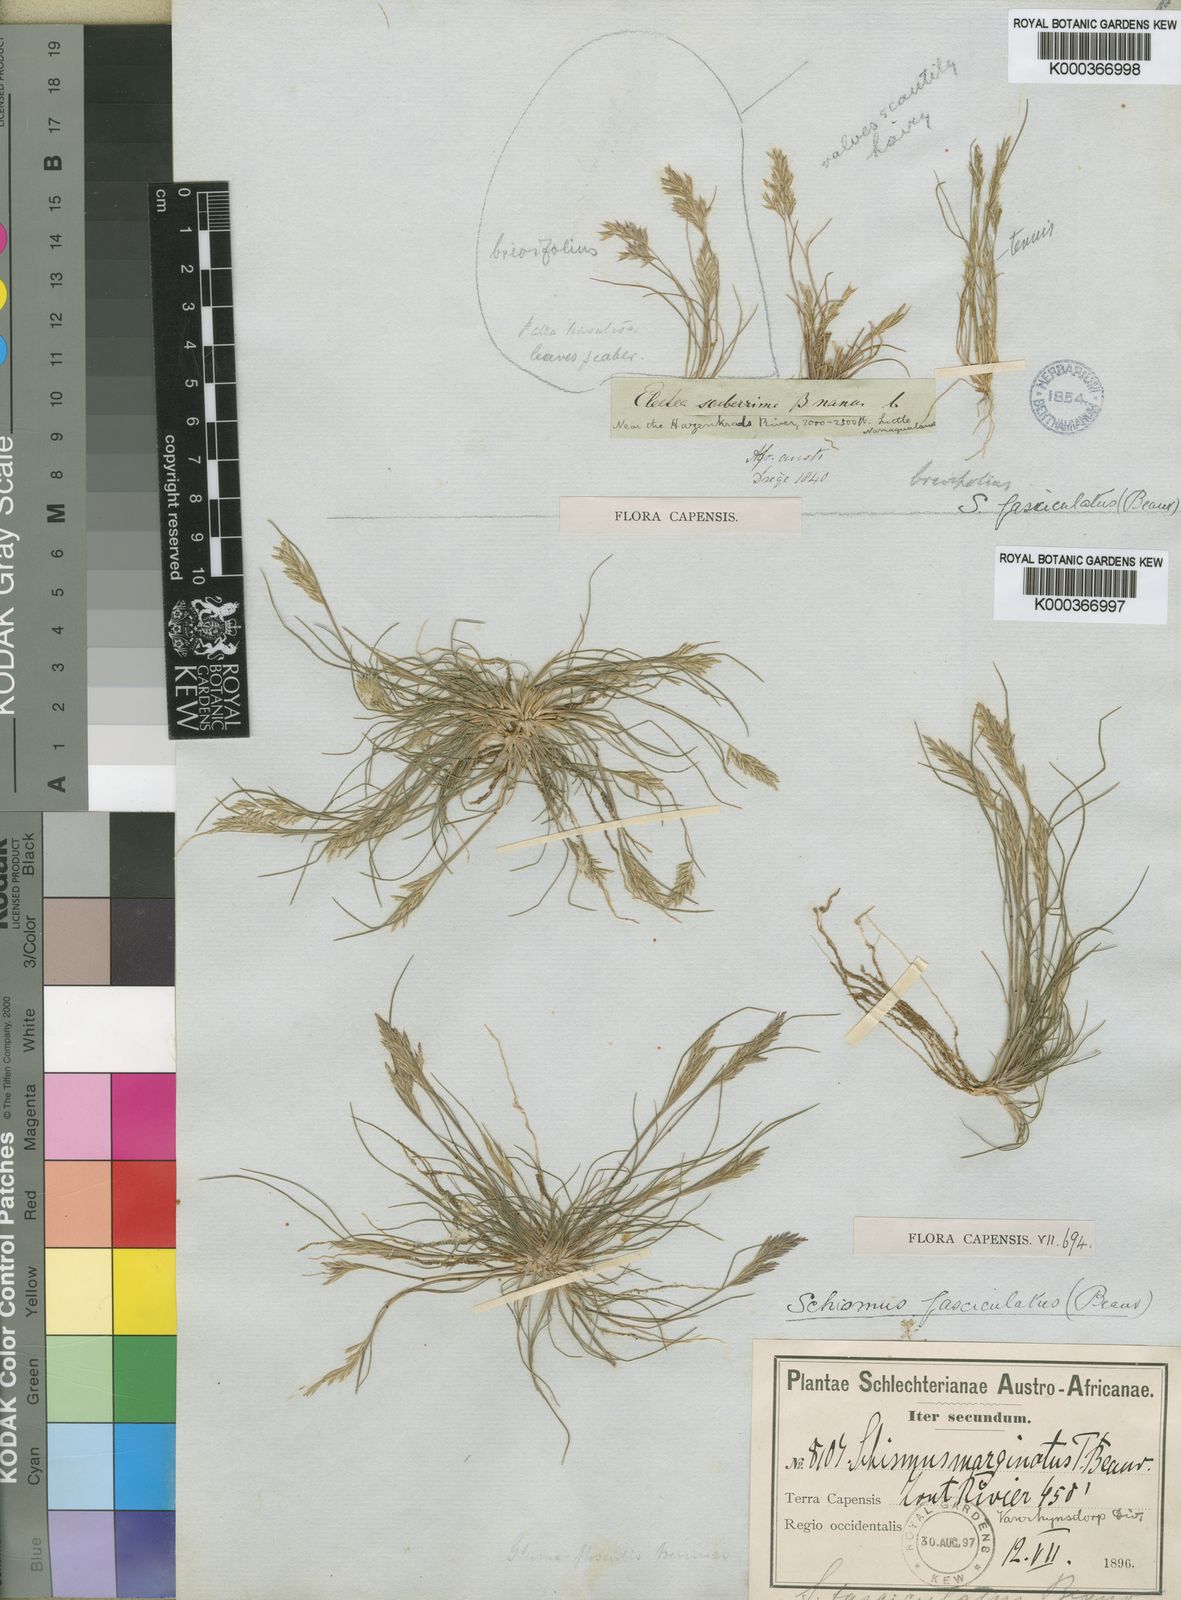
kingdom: Plantae
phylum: Tracheophyta
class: Liliopsida
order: Poales
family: Poaceae
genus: Schismus
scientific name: Schismus barbatus
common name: Kelch-grass
